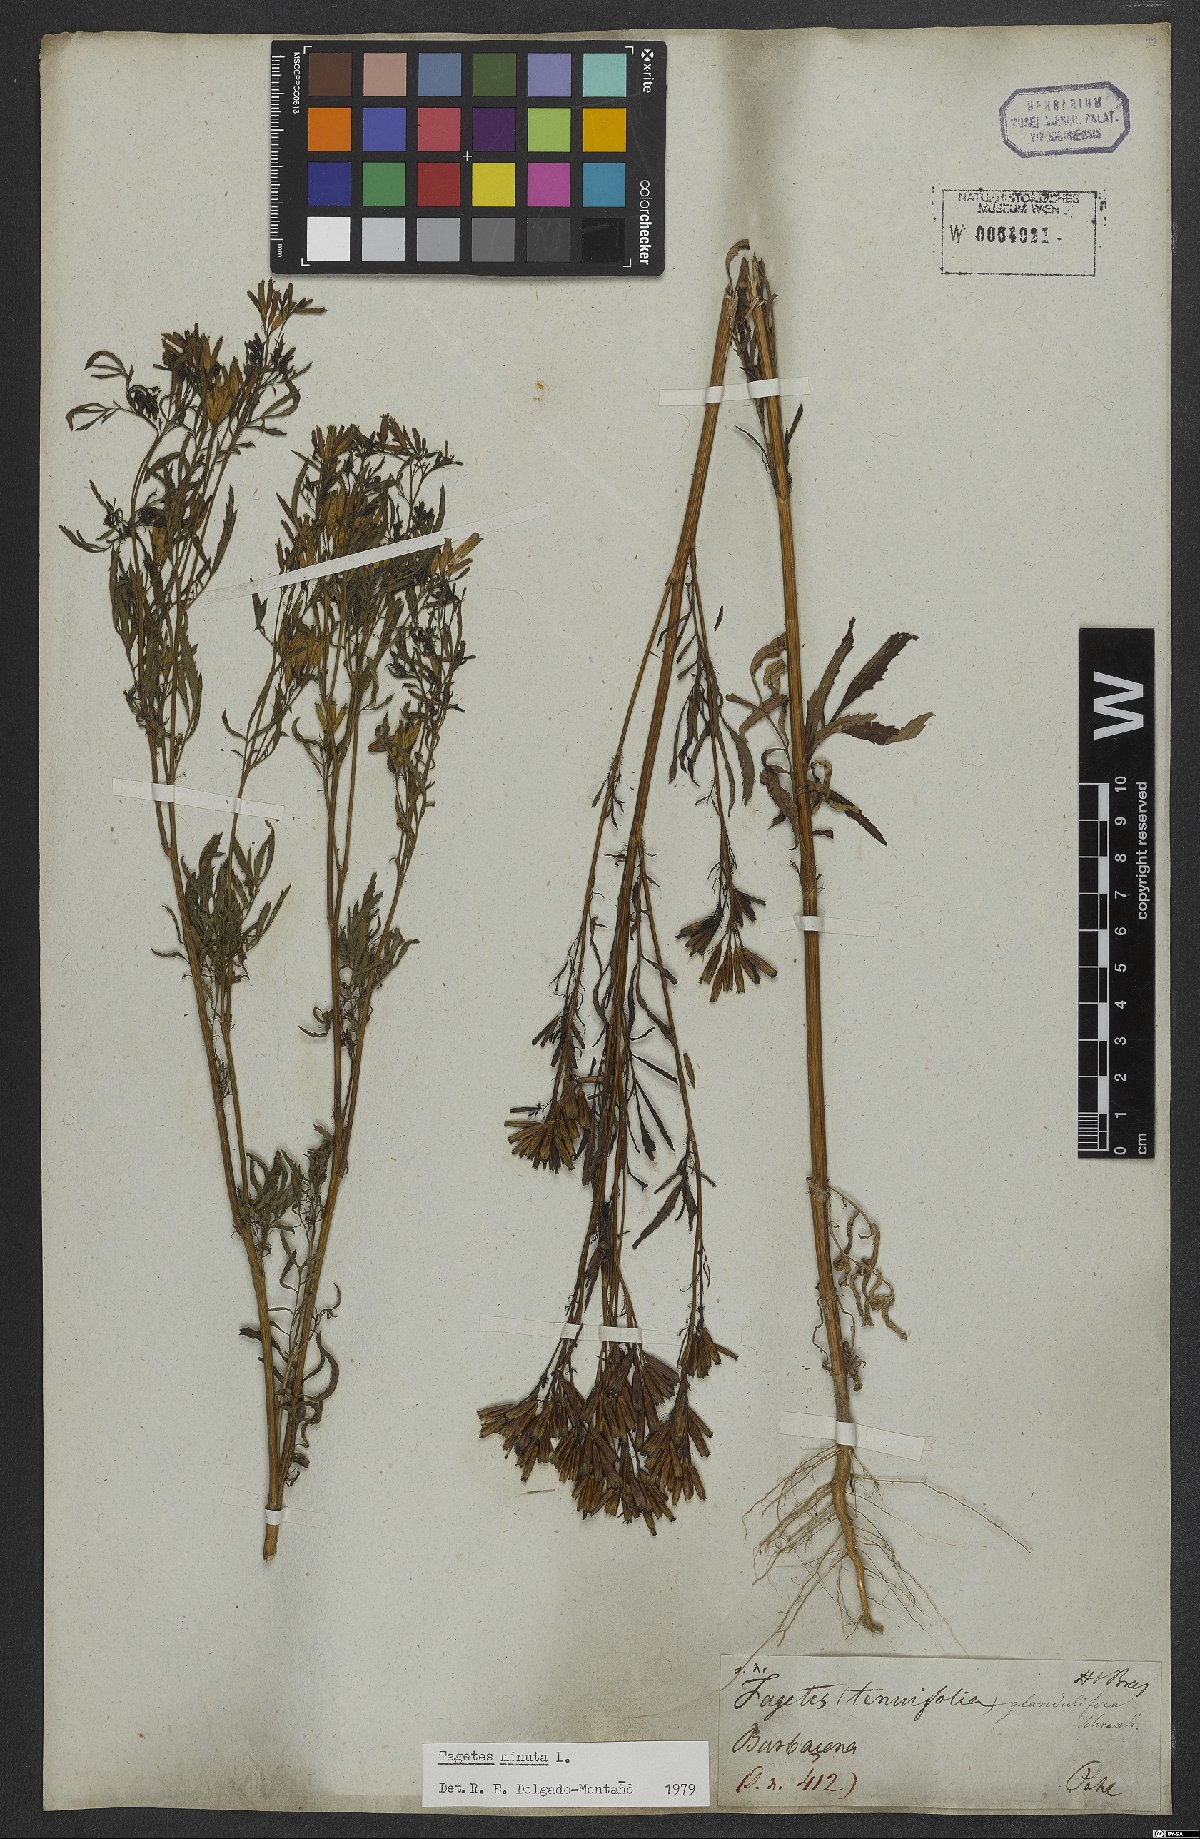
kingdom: Plantae
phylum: Tracheophyta
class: Magnoliopsida
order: Asterales
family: Asteraceae
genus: Tagetes
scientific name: Tagetes minuta
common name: Muster john henry
